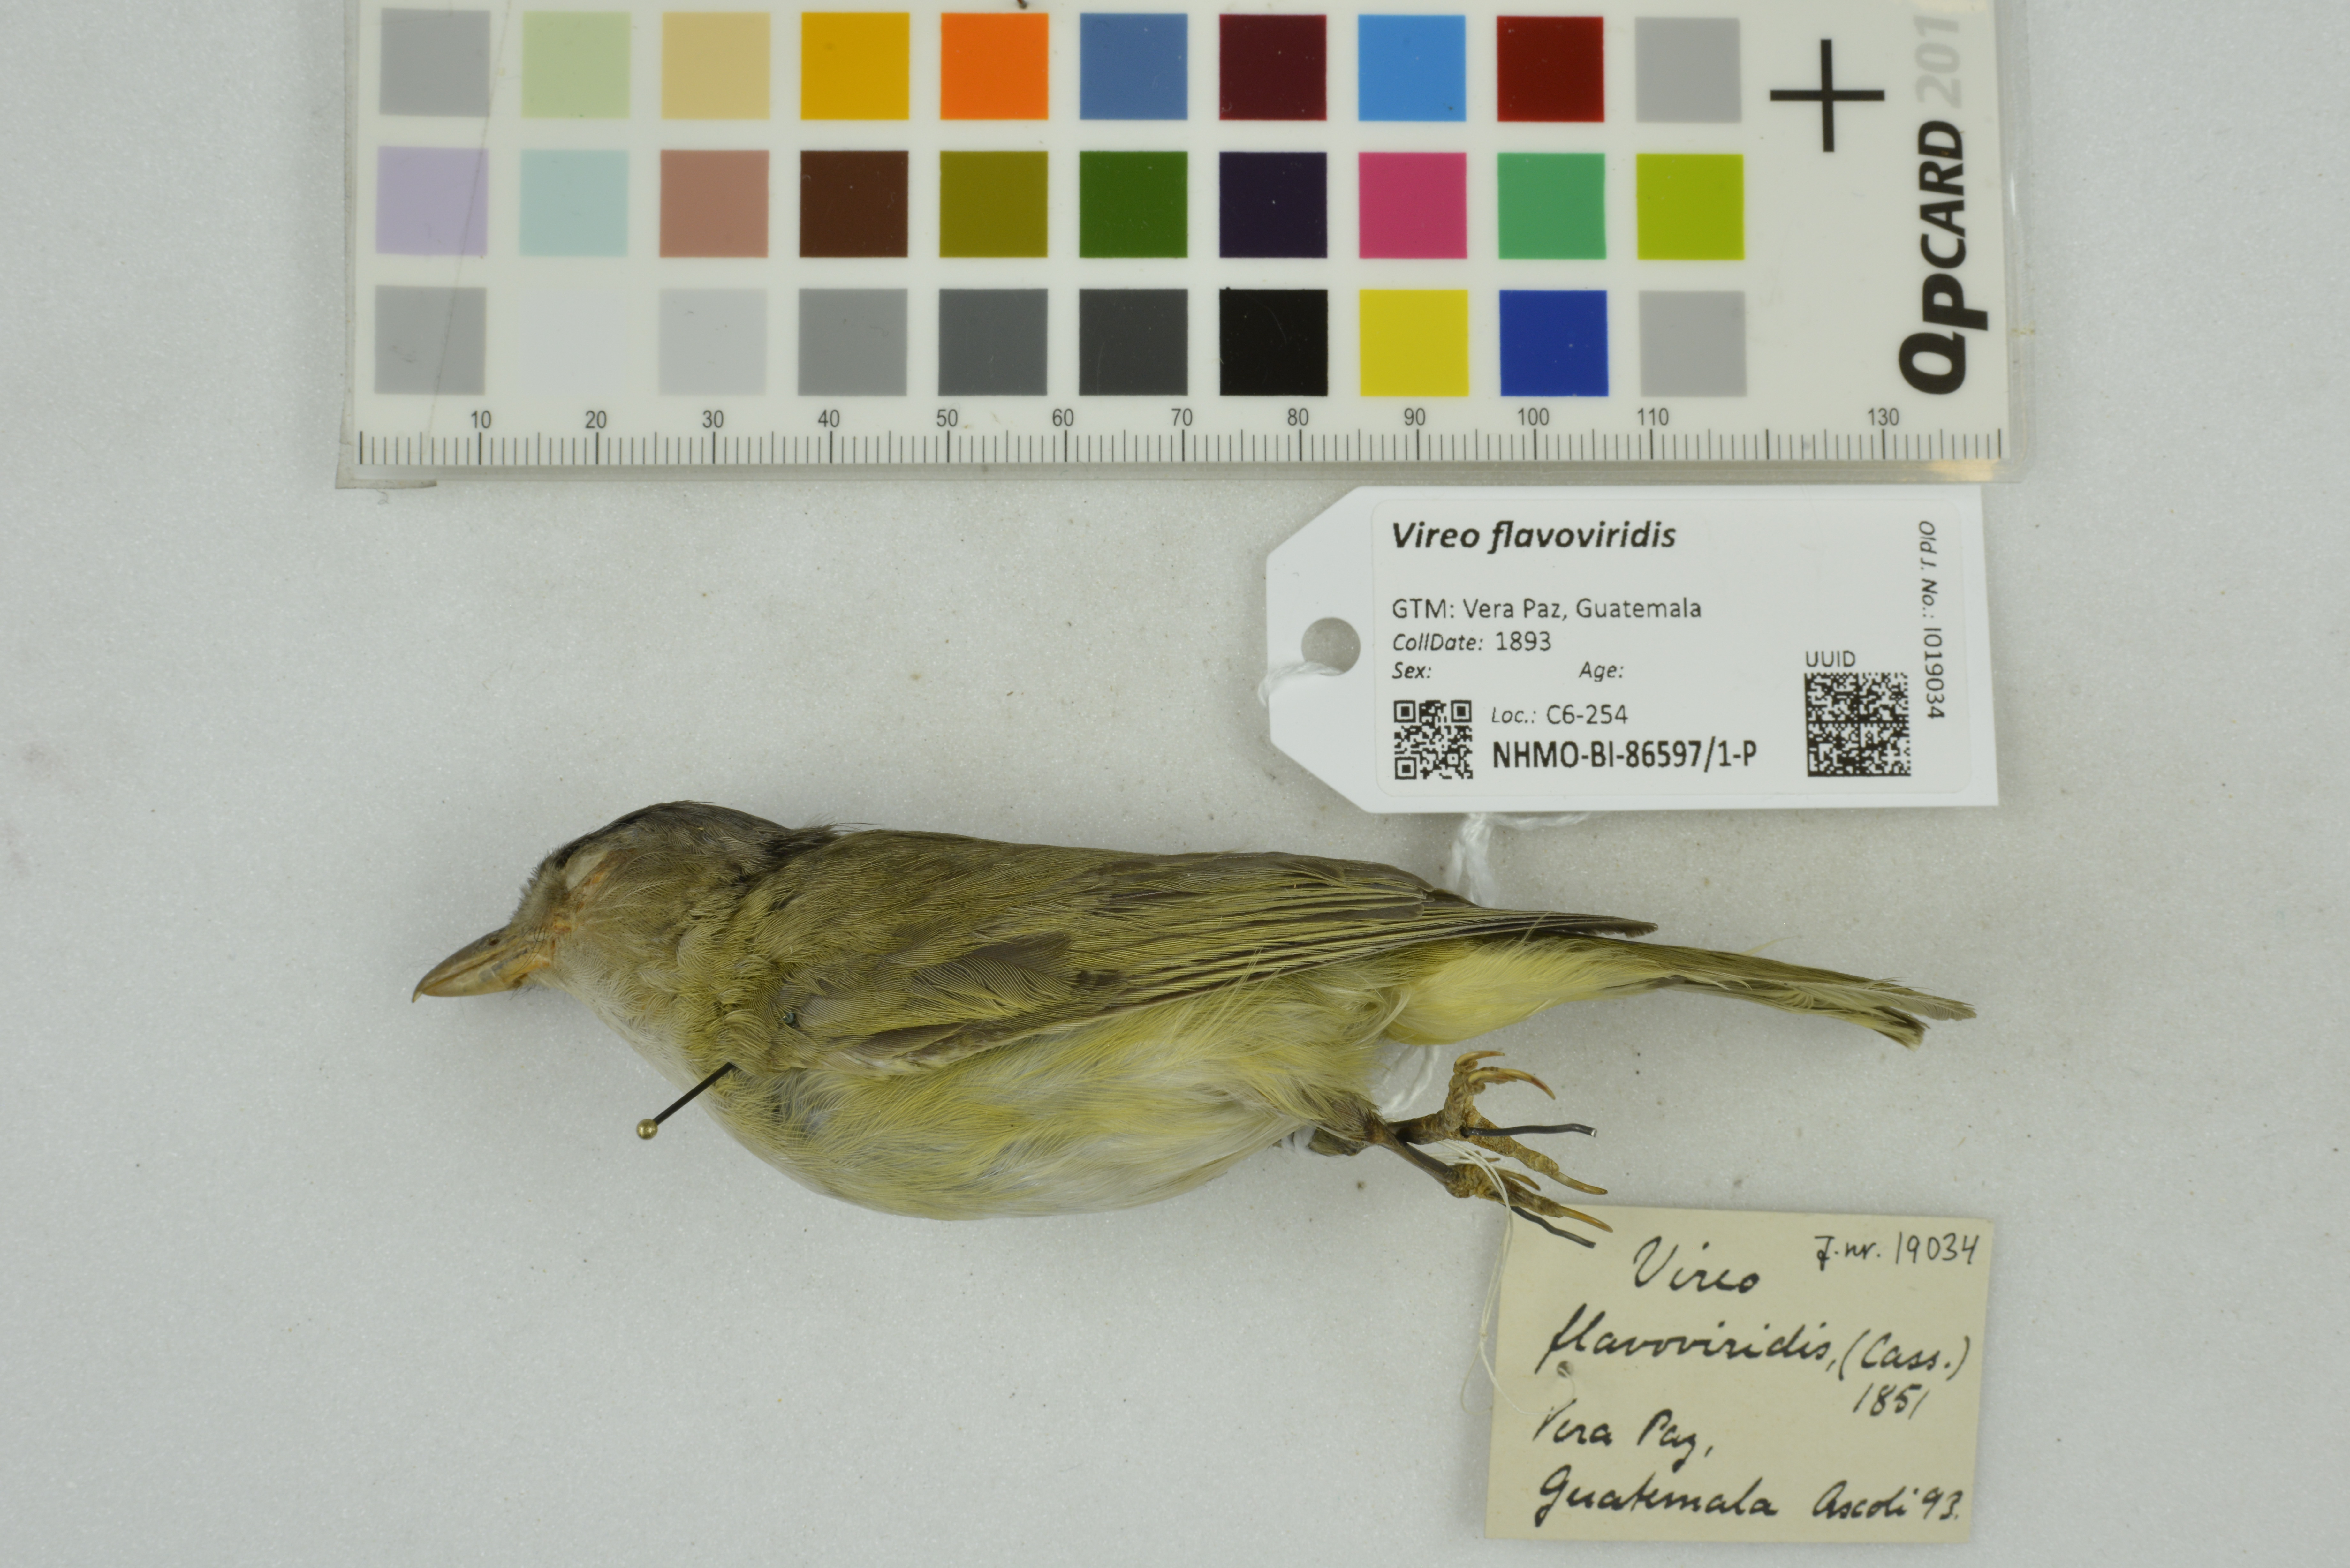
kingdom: Animalia
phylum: Chordata
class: Aves
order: Passeriformes
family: Vireonidae
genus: Vireo
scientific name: Vireo flavoviridis
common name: Yellow-green vireo
